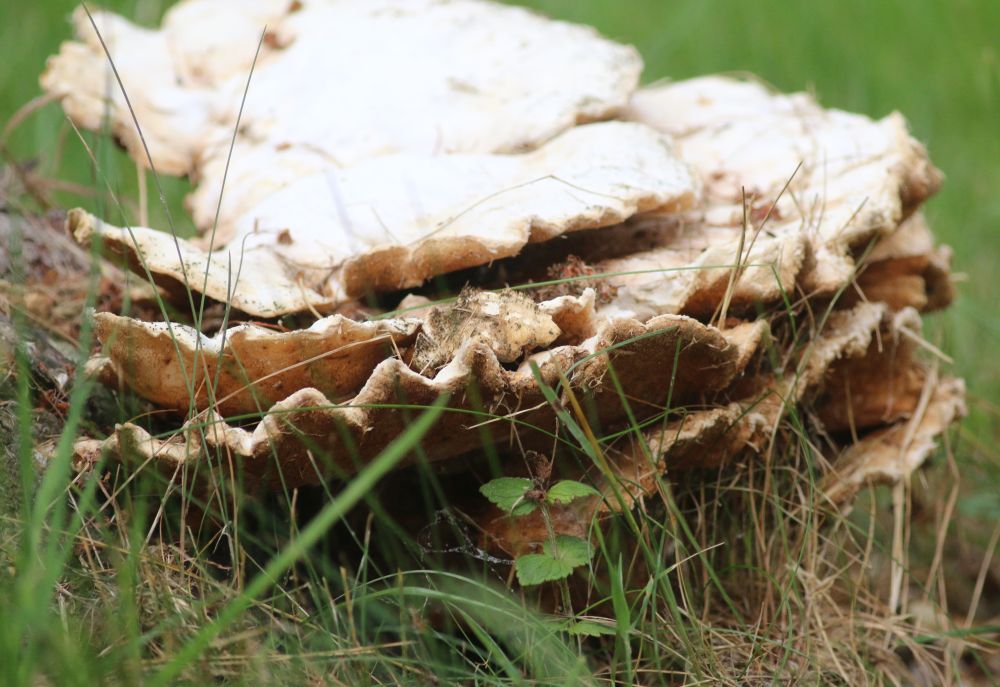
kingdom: Fungi
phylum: Basidiomycota
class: Agaricomycetes
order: Polyporales
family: Laetiporaceae
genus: Laetiporus
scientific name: Laetiporus sulphureus
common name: svovlporesvamp
